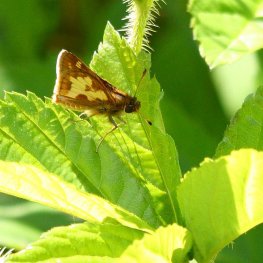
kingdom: Animalia
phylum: Arthropoda
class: Insecta
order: Lepidoptera
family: Hesperiidae
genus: Polites
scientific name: Polites coras
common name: Peck's Skipper
